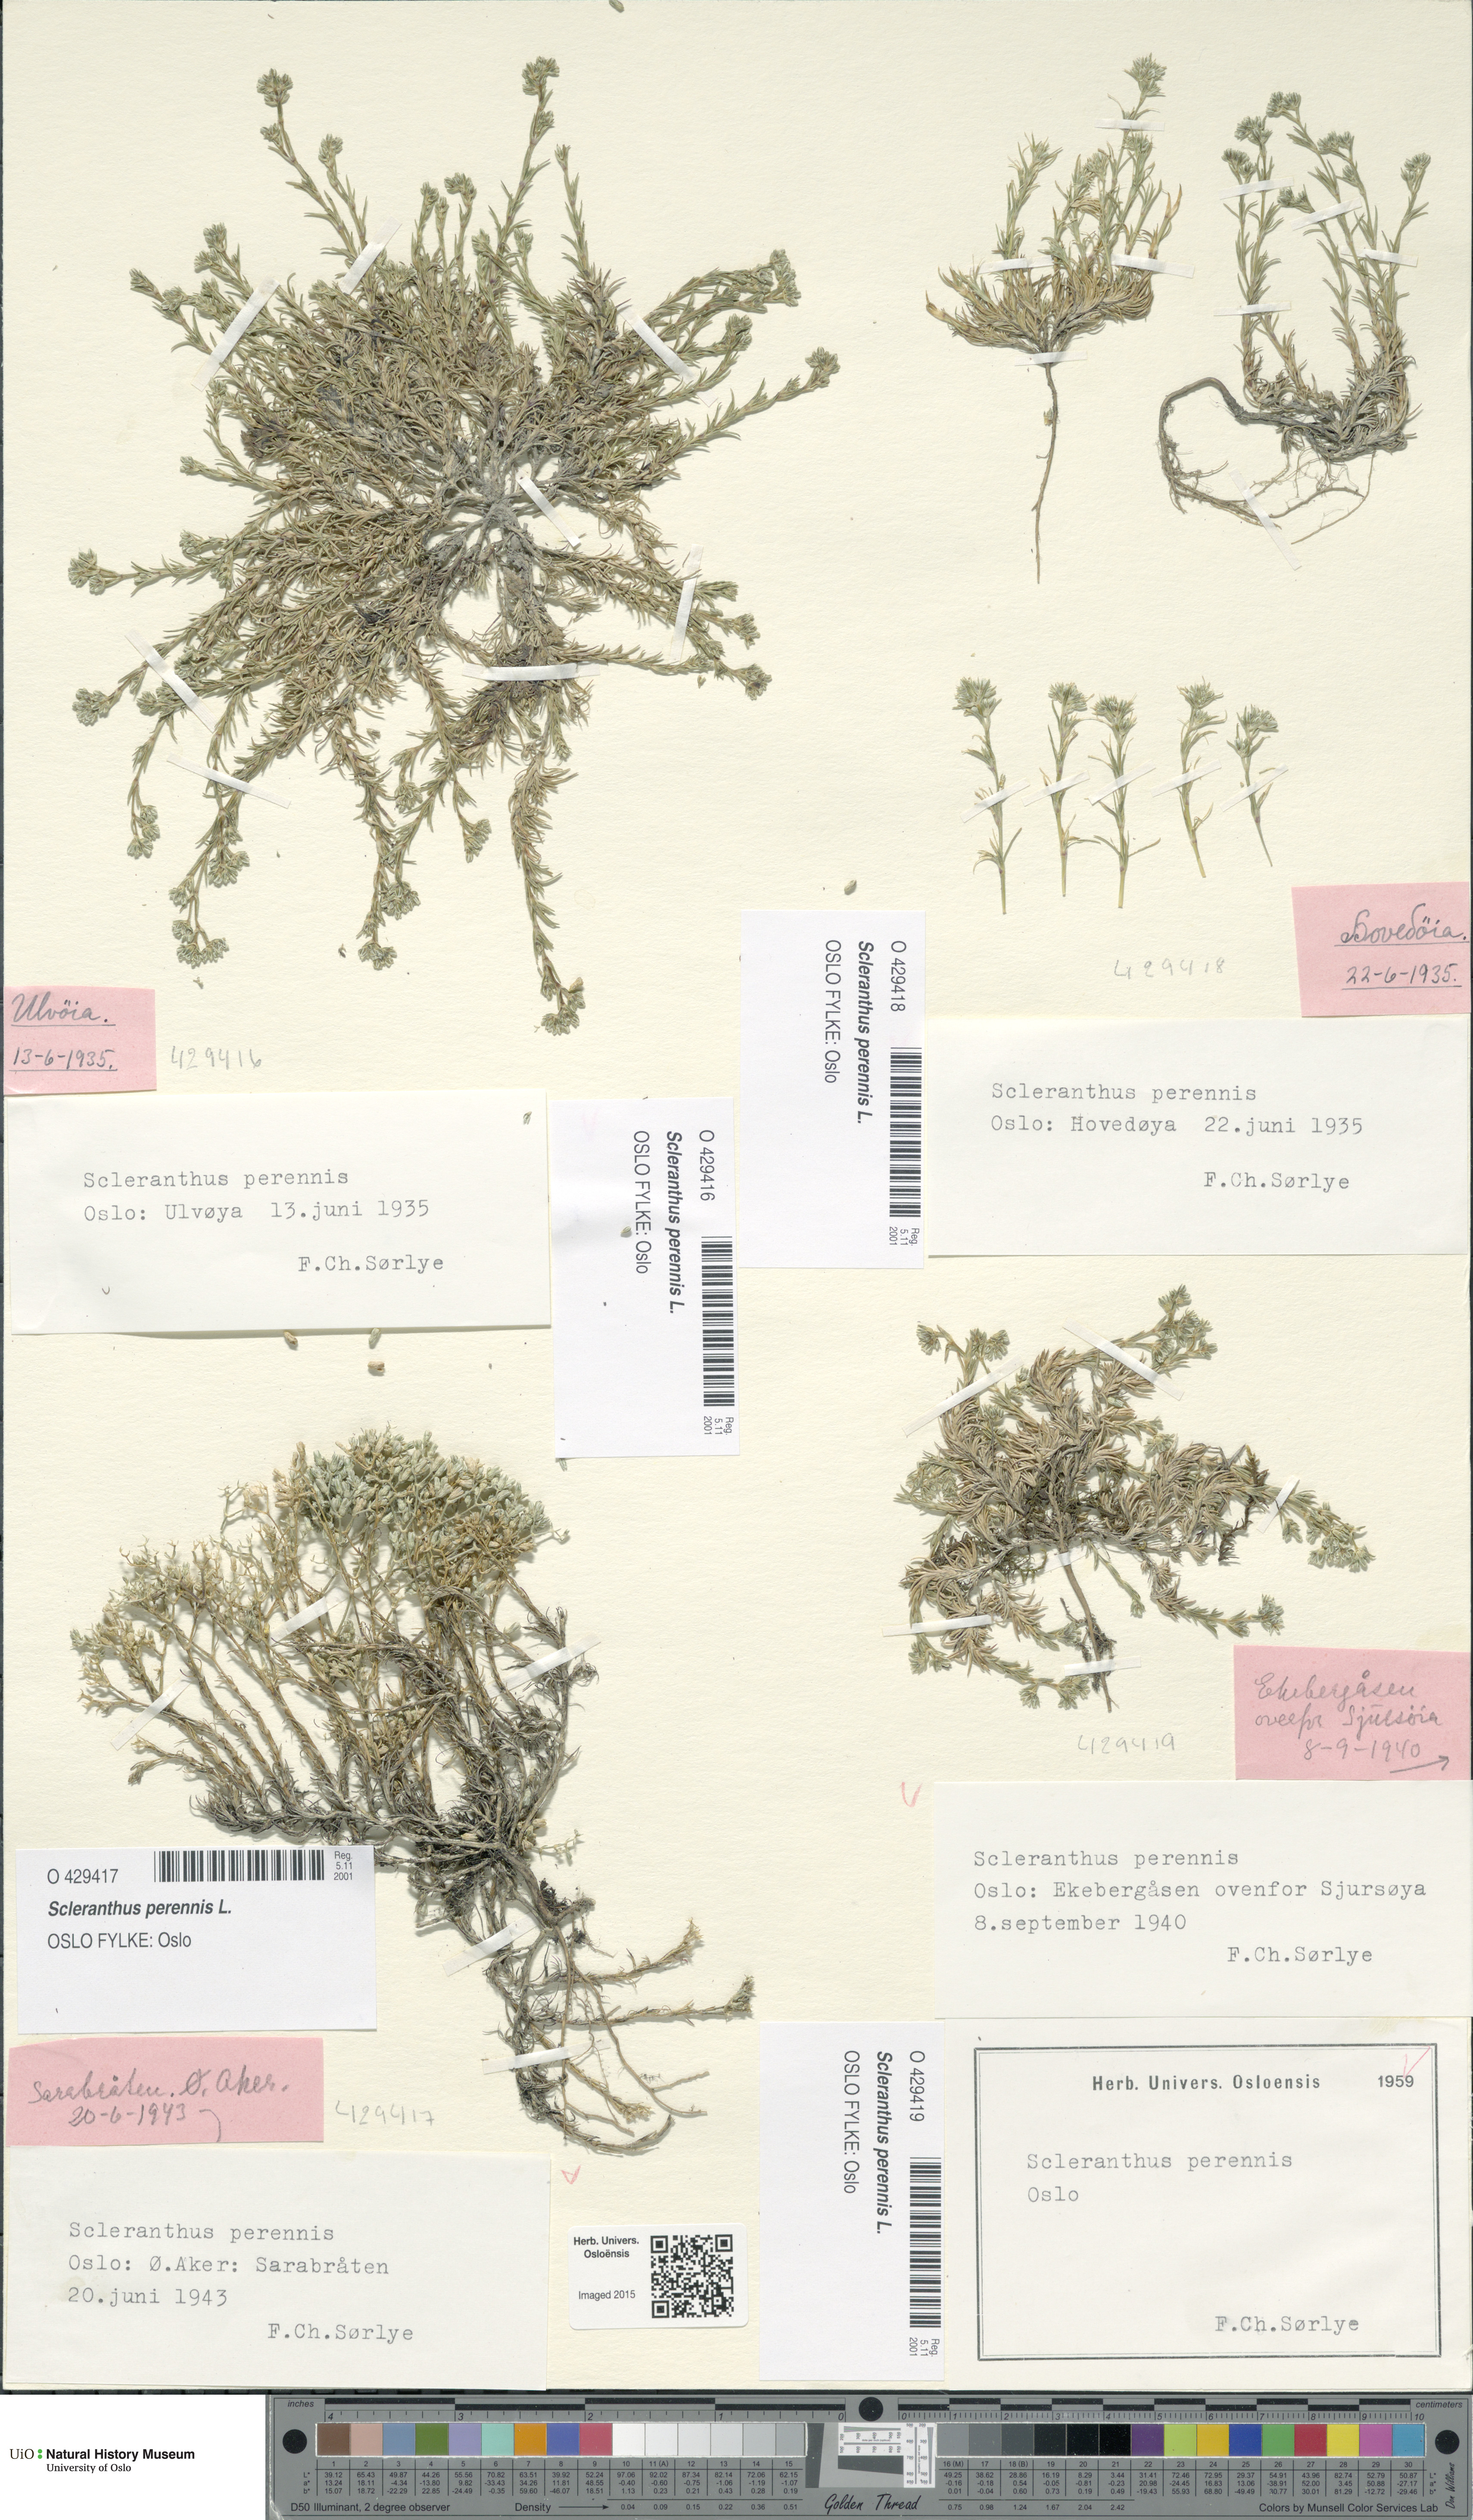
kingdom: Plantae
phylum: Tracheophyta
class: Magnoliopsida
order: Caryophyllales
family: Caryophyllaceae
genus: Scleranthus
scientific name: Scleranthus perennis
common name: Perennial knawel
